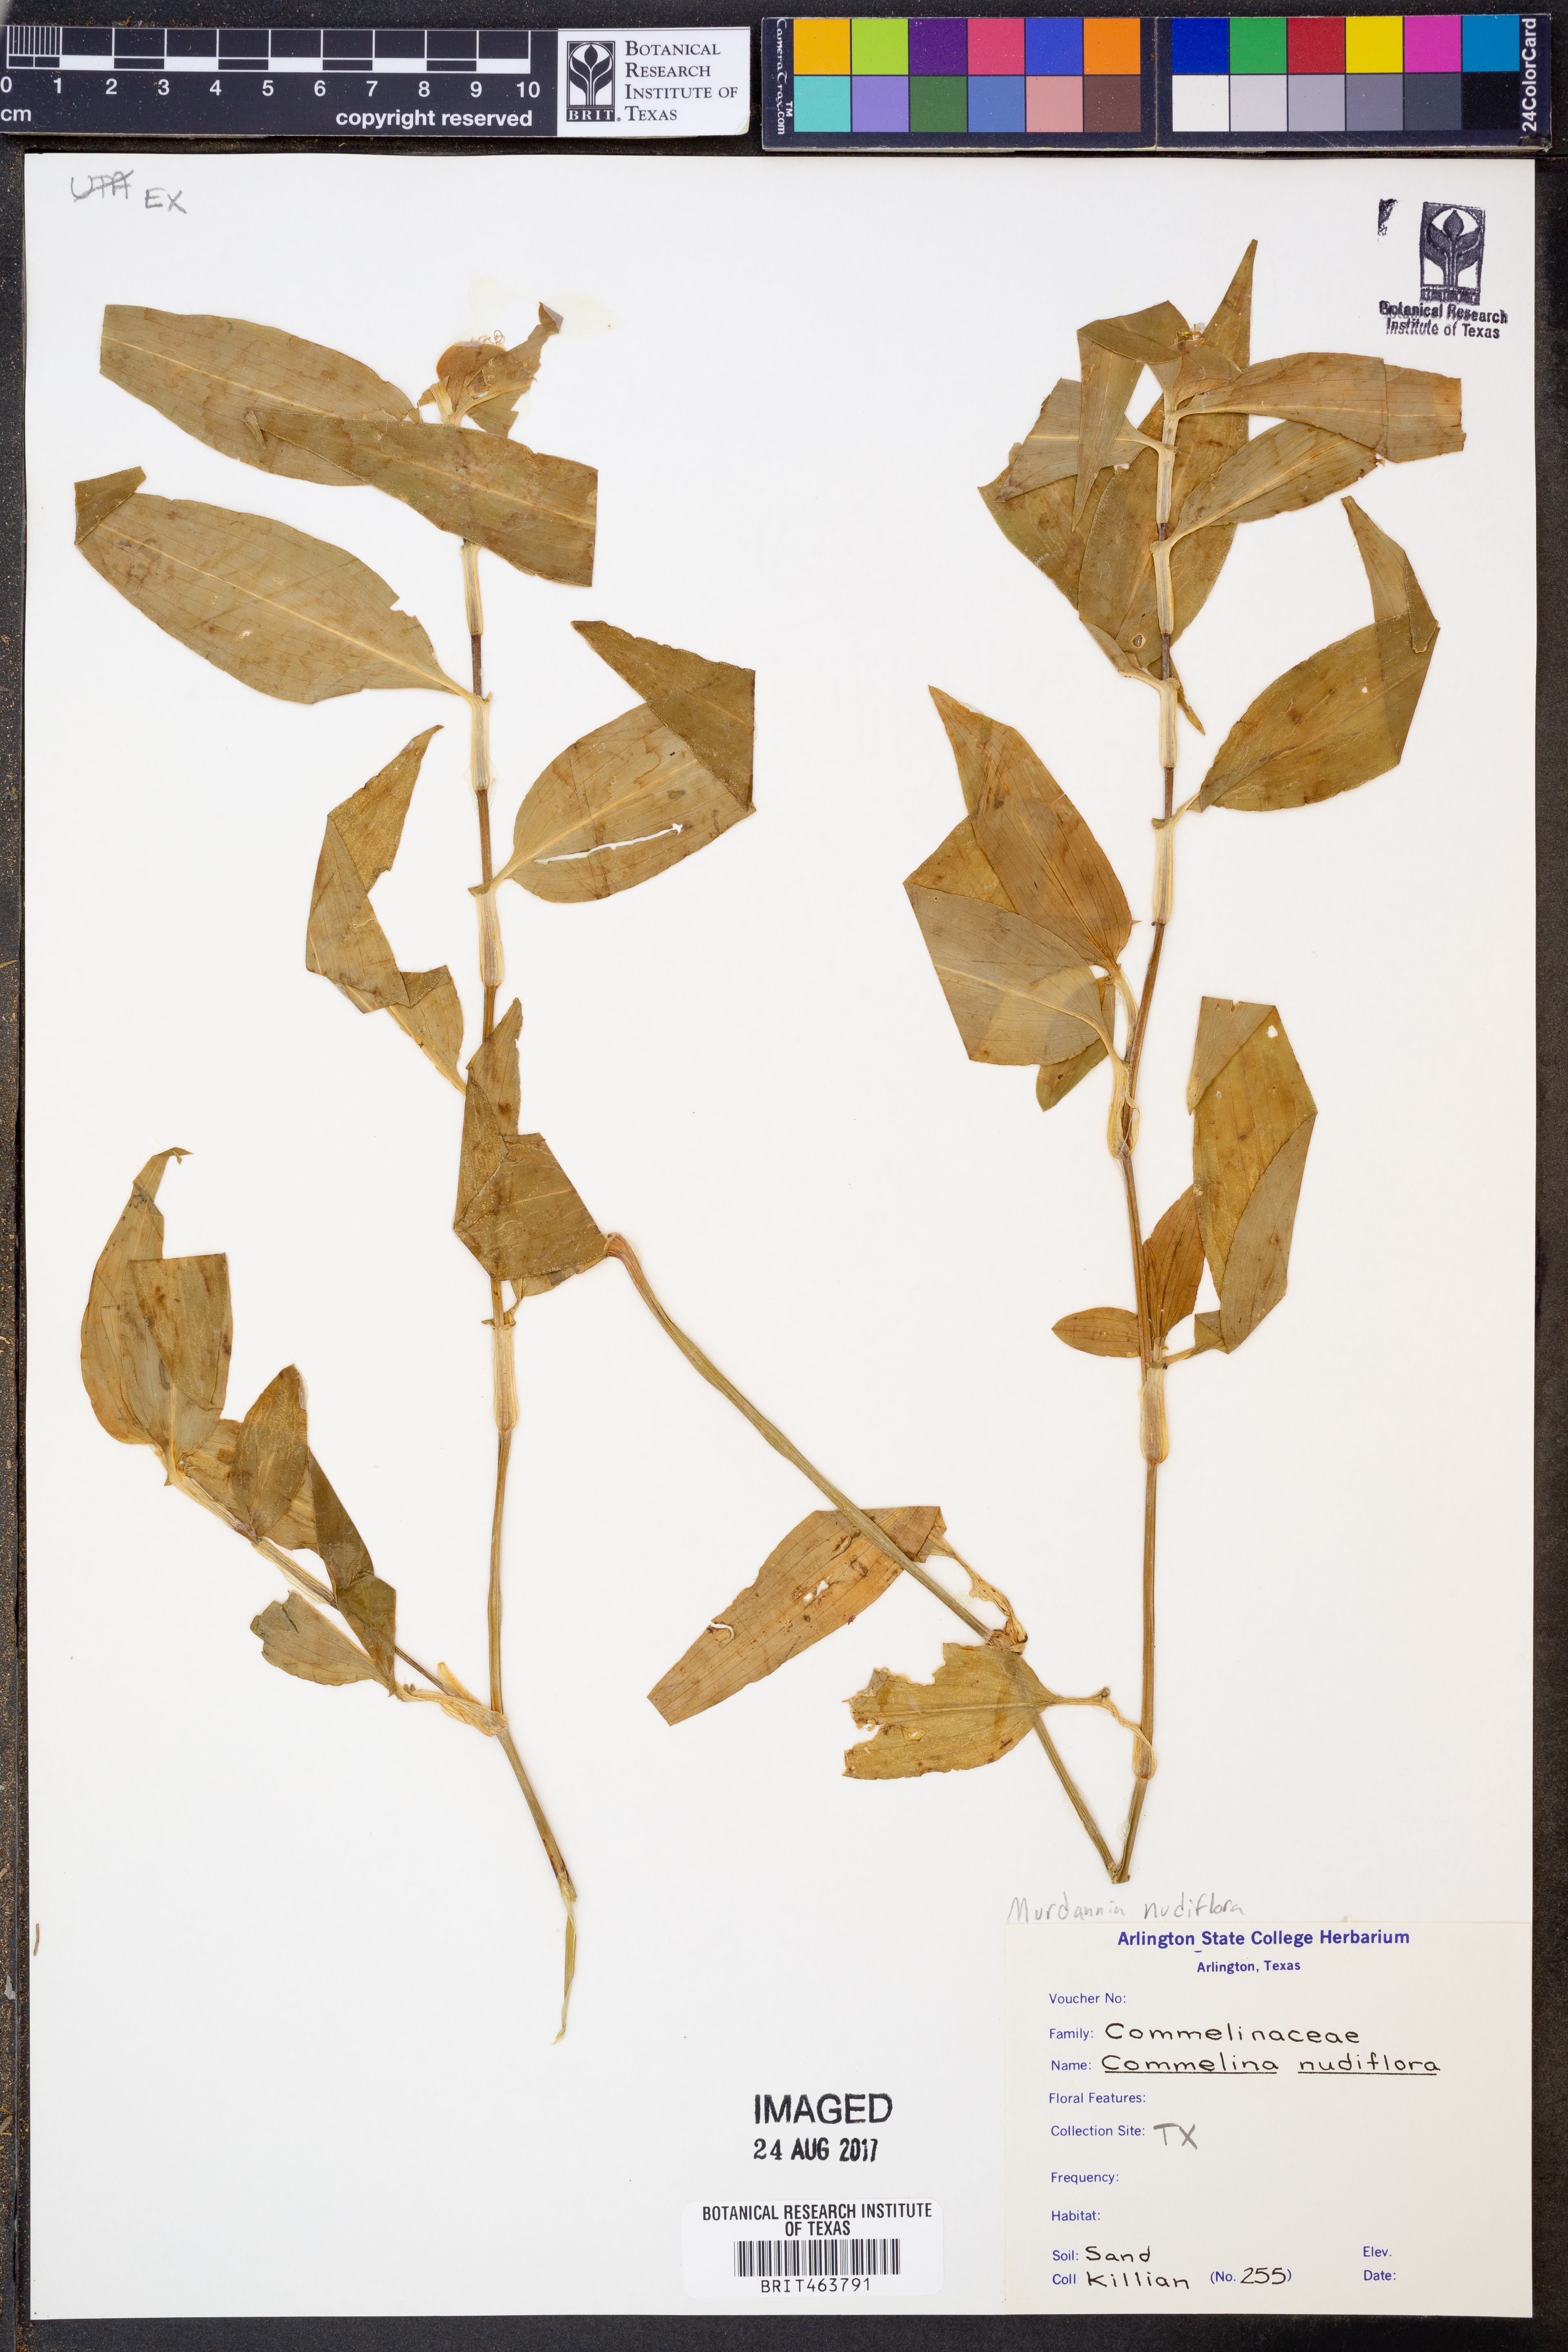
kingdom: Plantae
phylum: Tracheophyta
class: Liliopsida
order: Commelinales
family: Commelinaceae
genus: Murdannia
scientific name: Murdannia nudiflora
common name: Nakedstem dewflower
